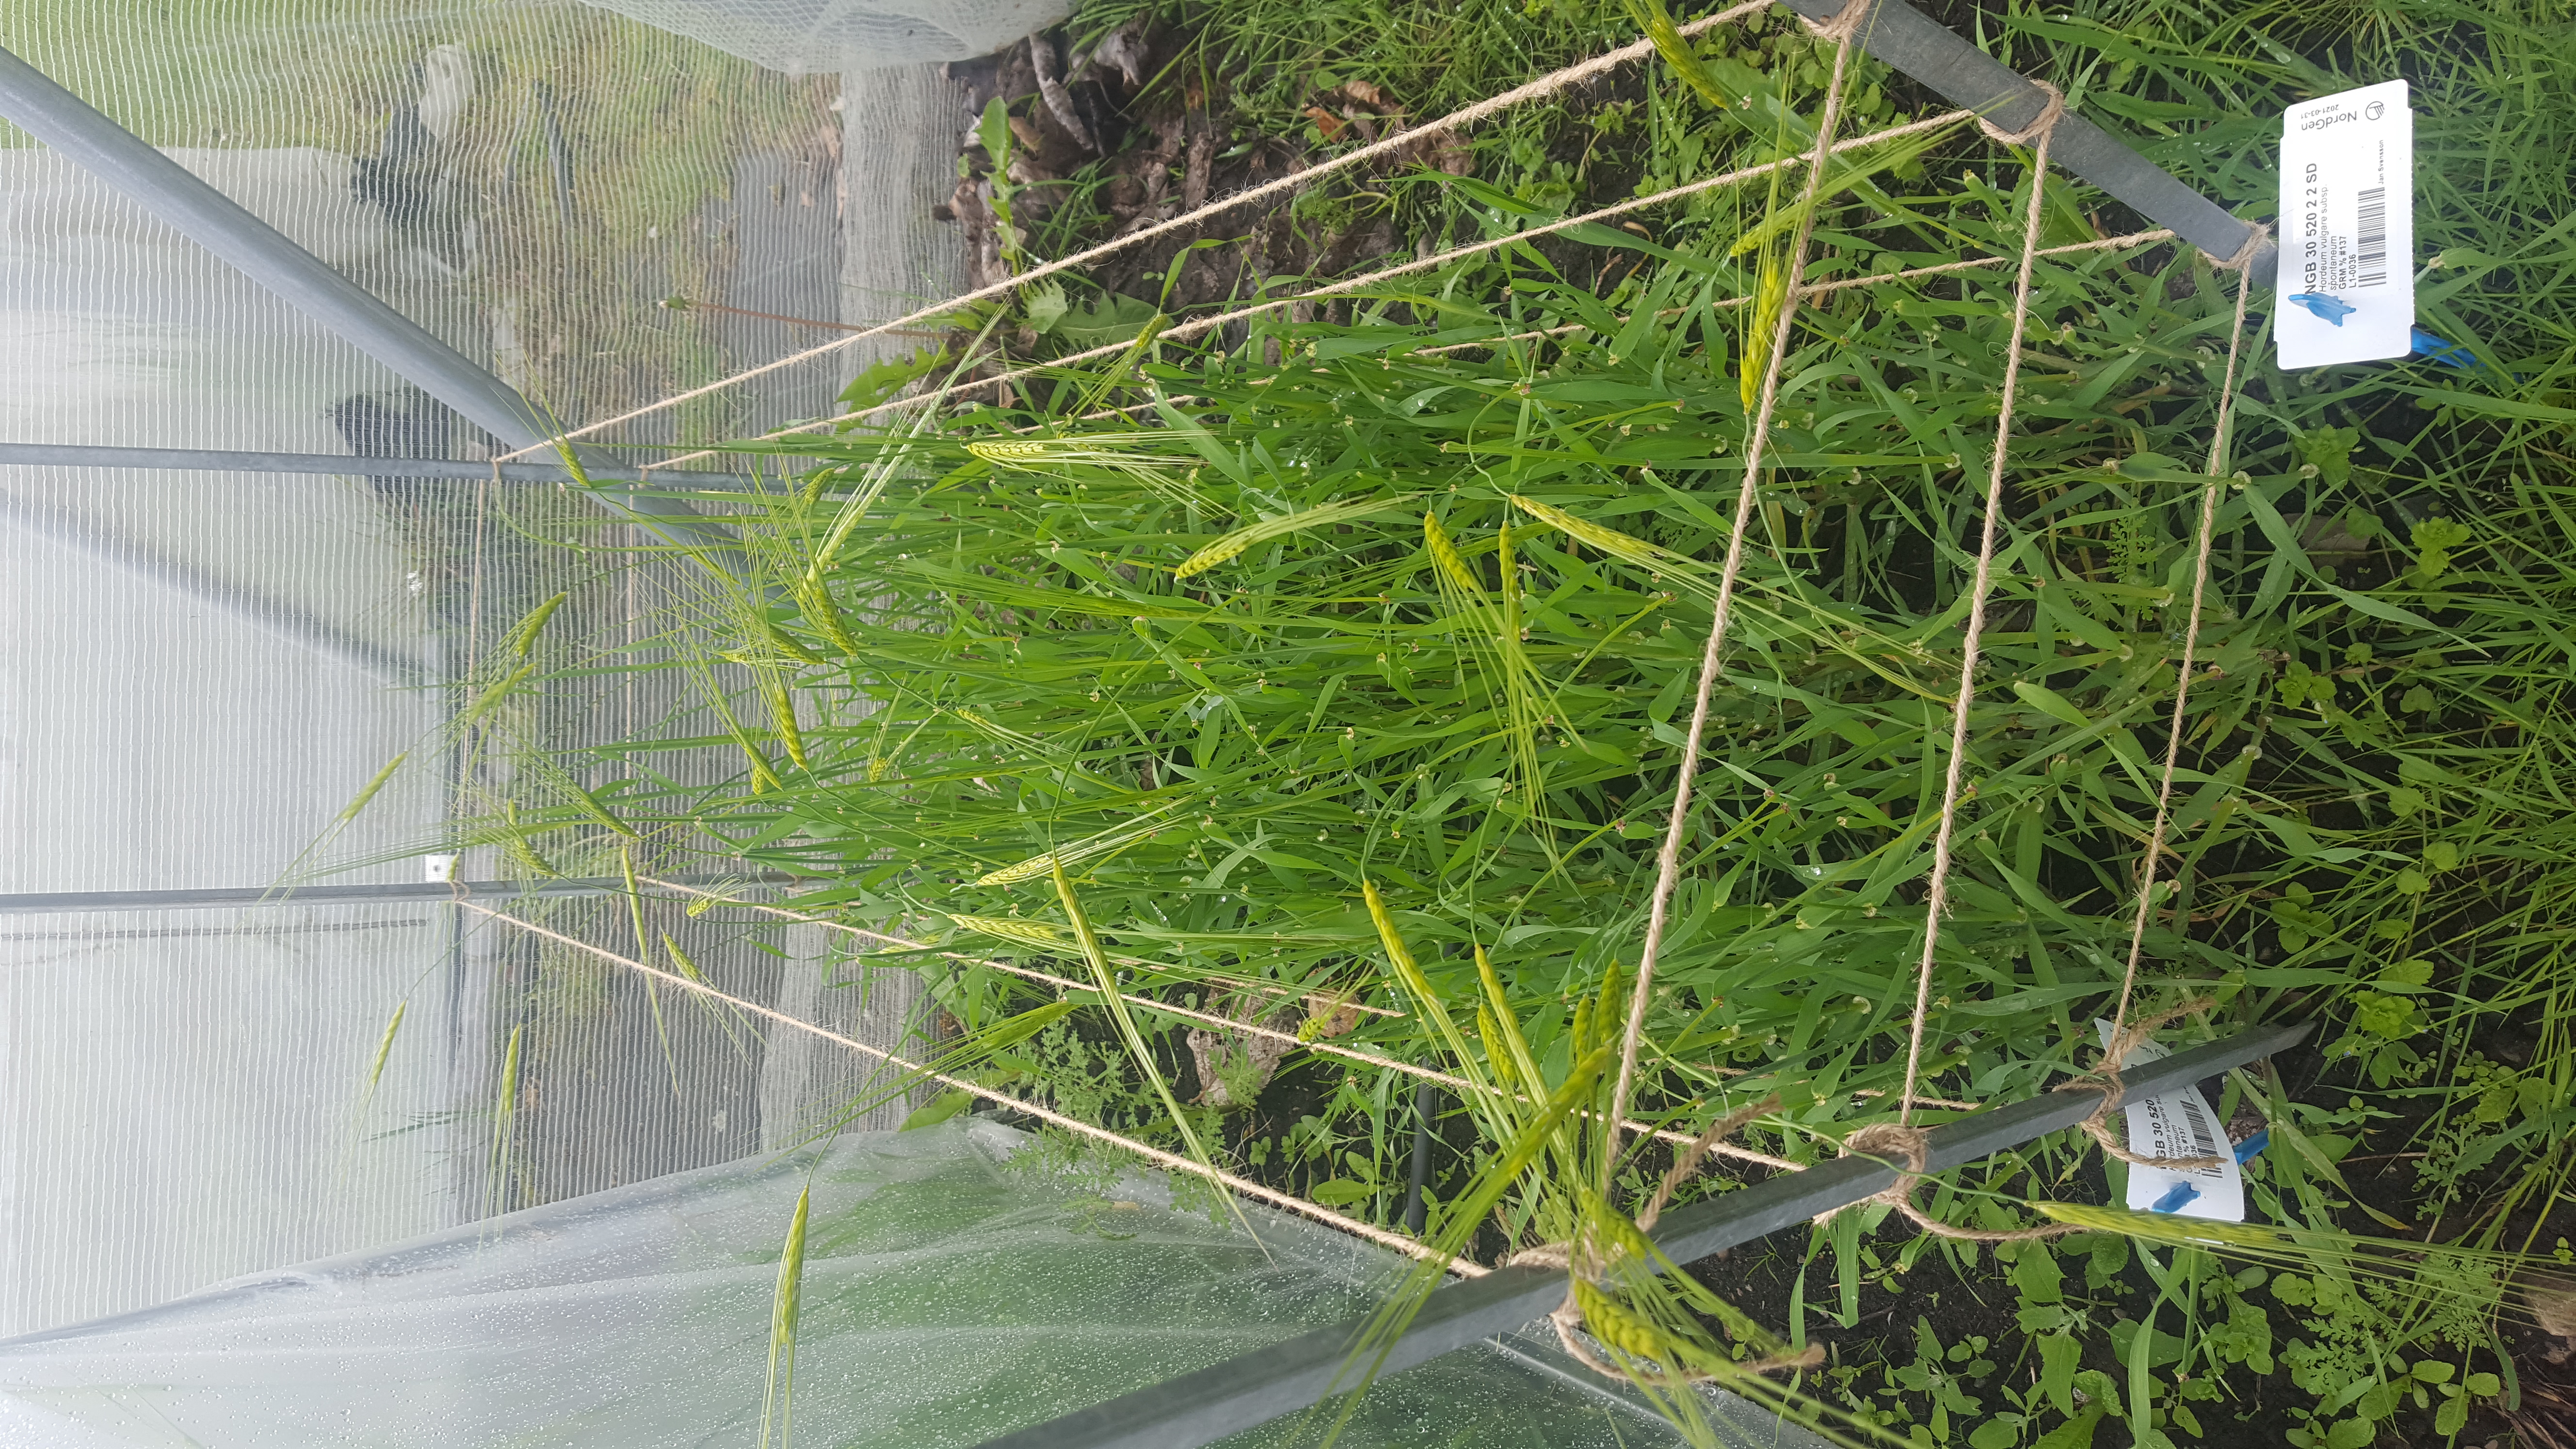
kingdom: Plantae
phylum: Tracheophyta
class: Liliopsida
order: Poales
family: Poaceae
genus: Hordeum
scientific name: Hordeum spontaneum
